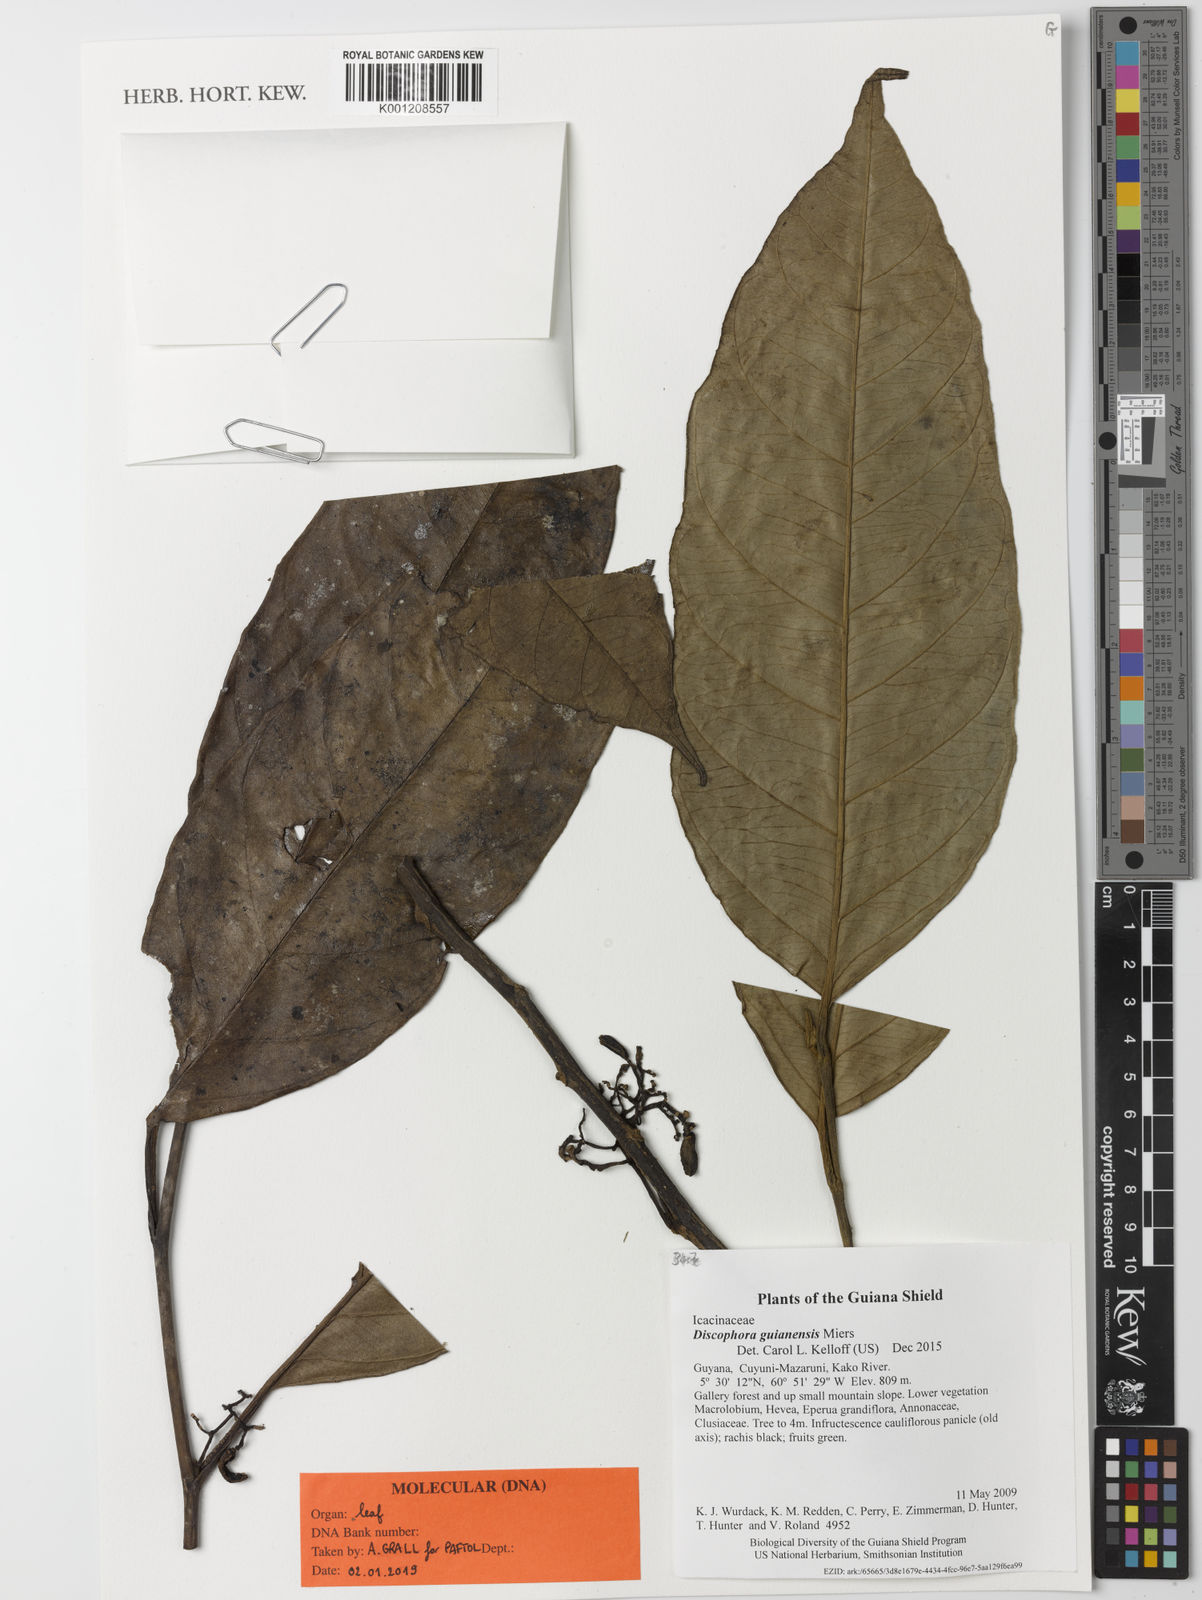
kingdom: Plantae
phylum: Tracheophyta
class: Magnoliopsida
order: Cardiopteridales
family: Stemonuraceae
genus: Discophora
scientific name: Discophora guianensis
